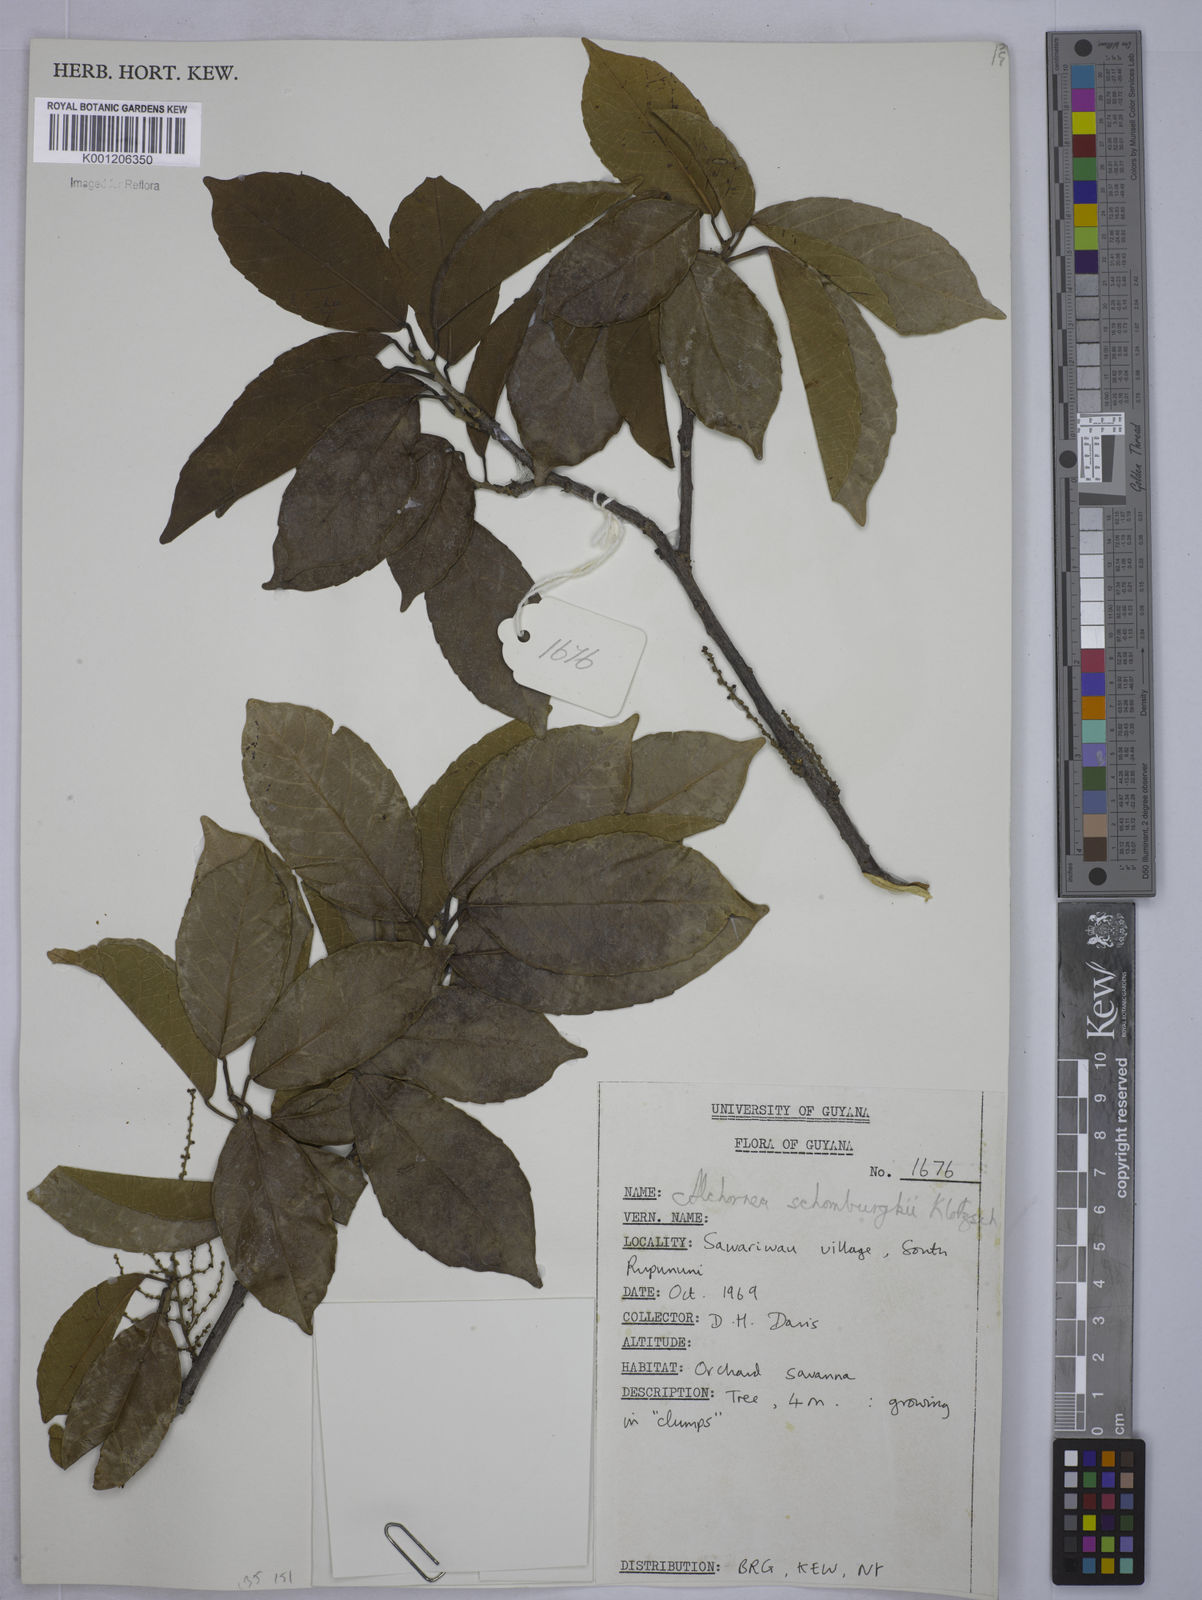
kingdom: Plantae
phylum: Tracheophyta
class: Magnoliopsida
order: Malpighiales
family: Euphorbiaceae
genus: Alchornea
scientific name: Alchornea discolor
